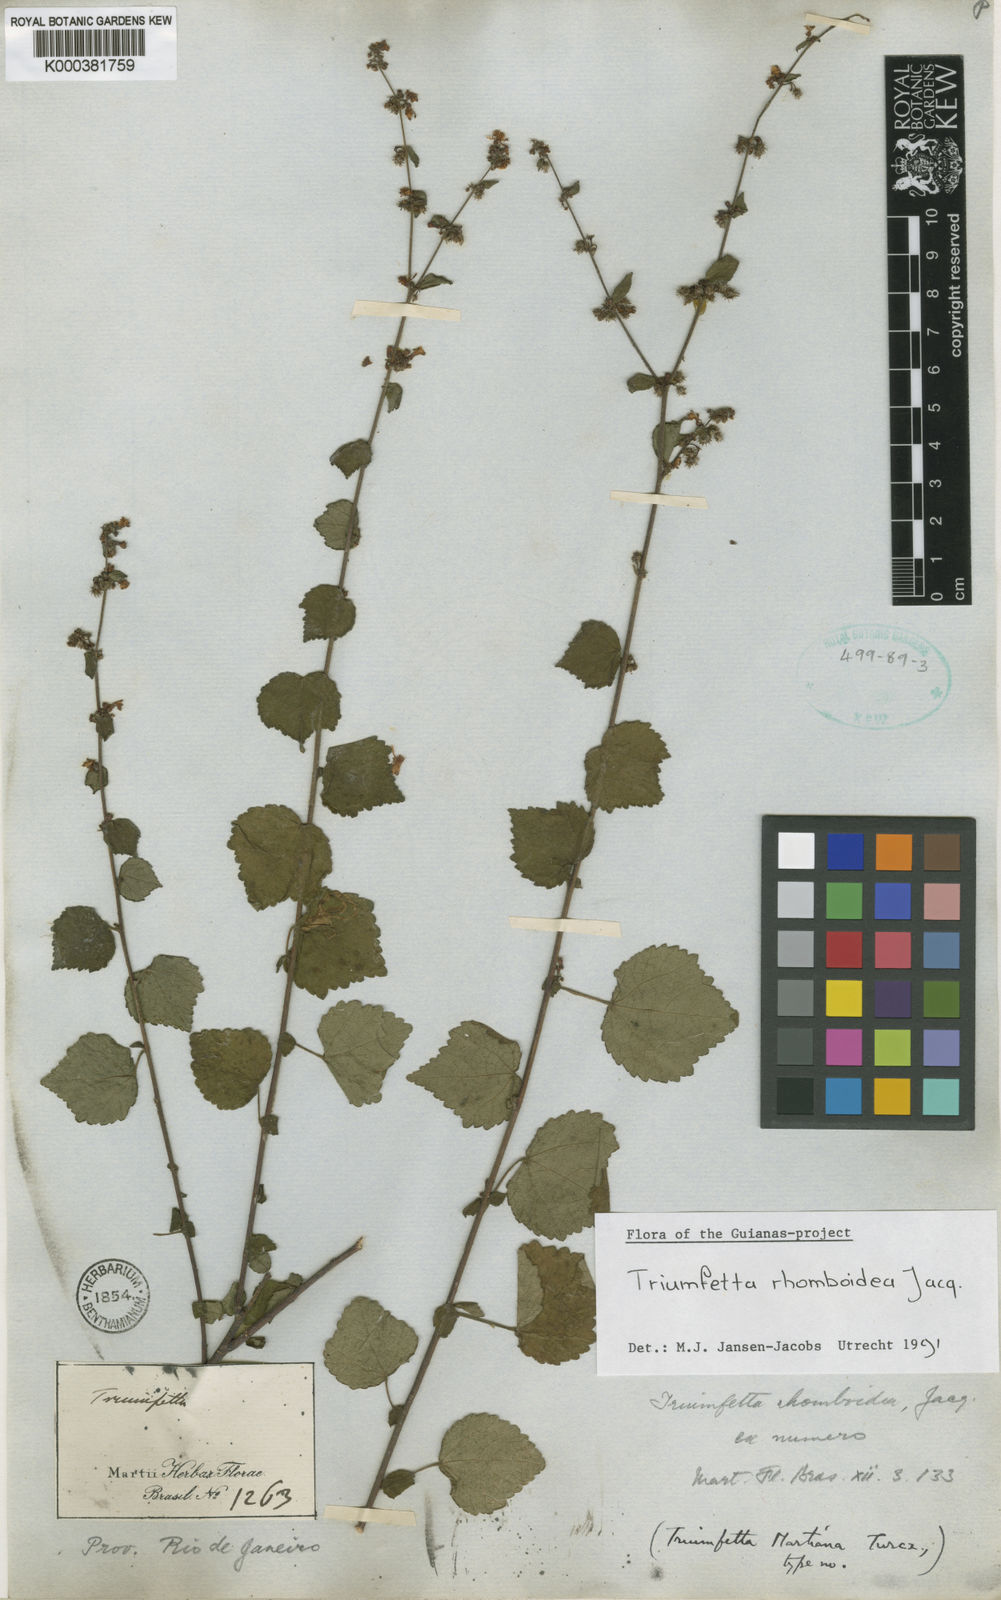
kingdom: Plantae
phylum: Tracheophyta
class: Magnoliopsida
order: Malvales
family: Malvaceae
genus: Triumfetta
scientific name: Triumfetta rhomboidea
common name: Diamond burbark
